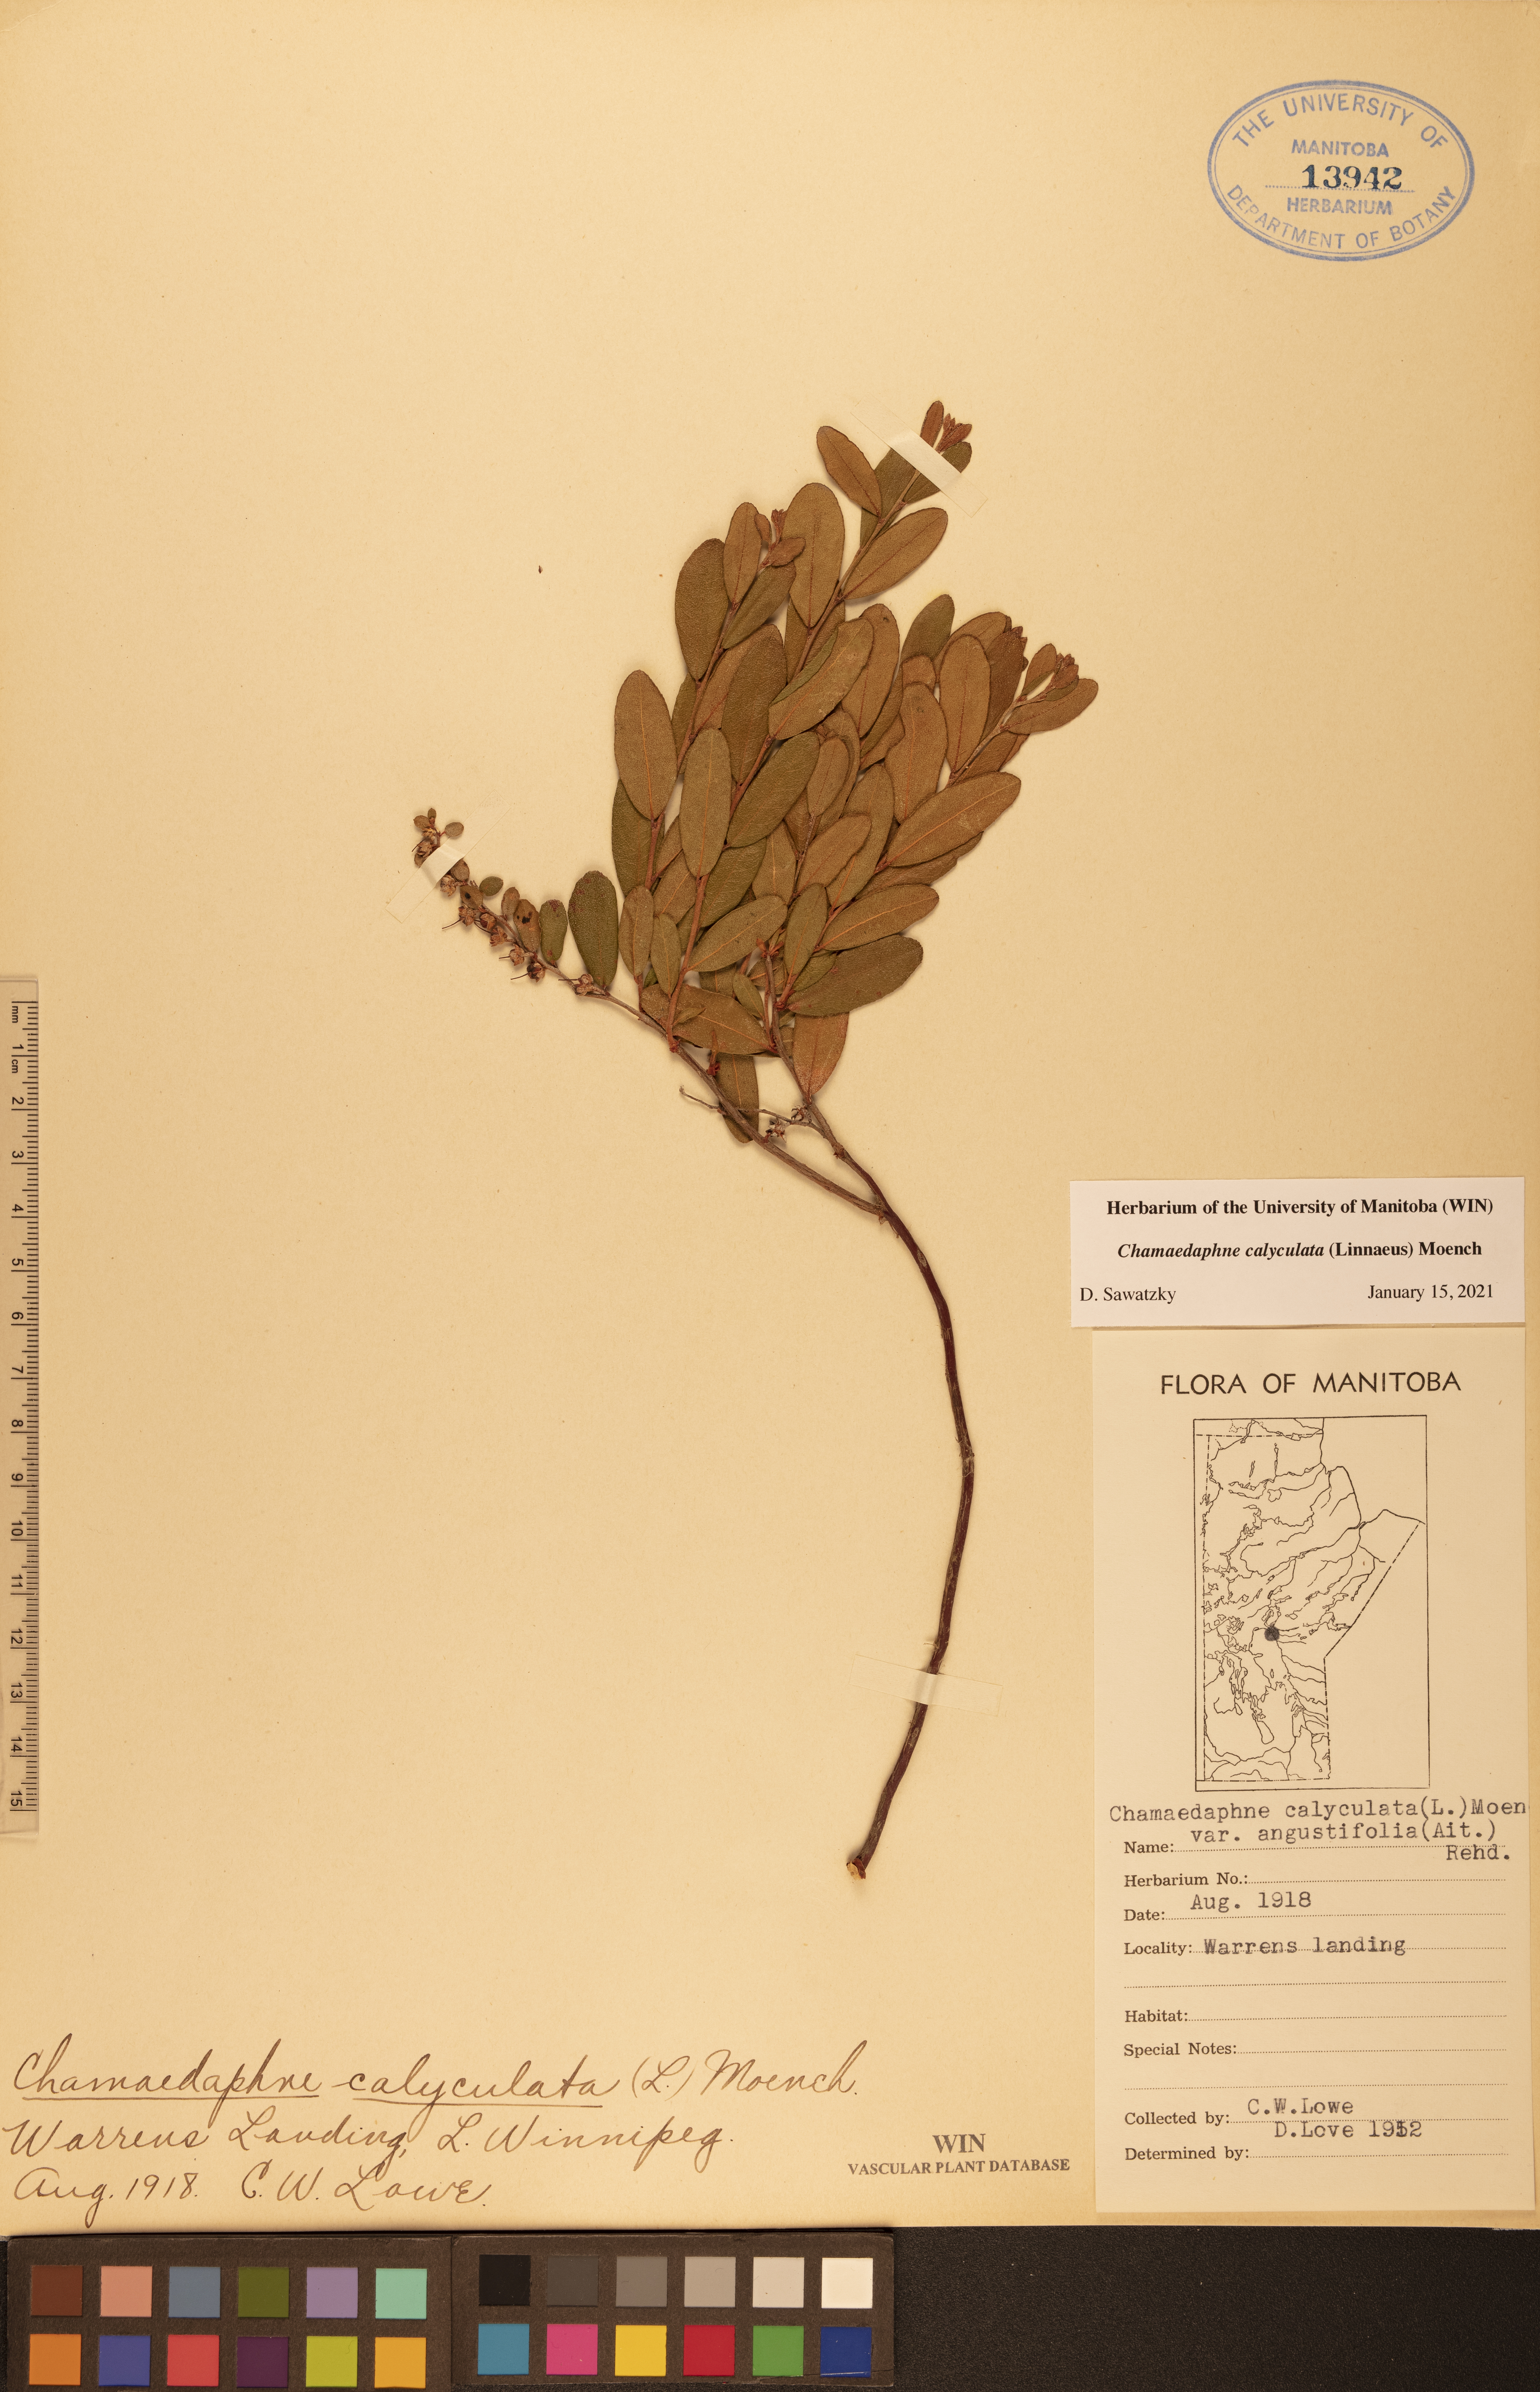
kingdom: Plantae
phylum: Tracheophyta
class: Magnoliopsida
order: Ericales
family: Ericaceae
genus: Chamaedaphne
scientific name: Chamaedaphne calyculata
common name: Leatherleaf
